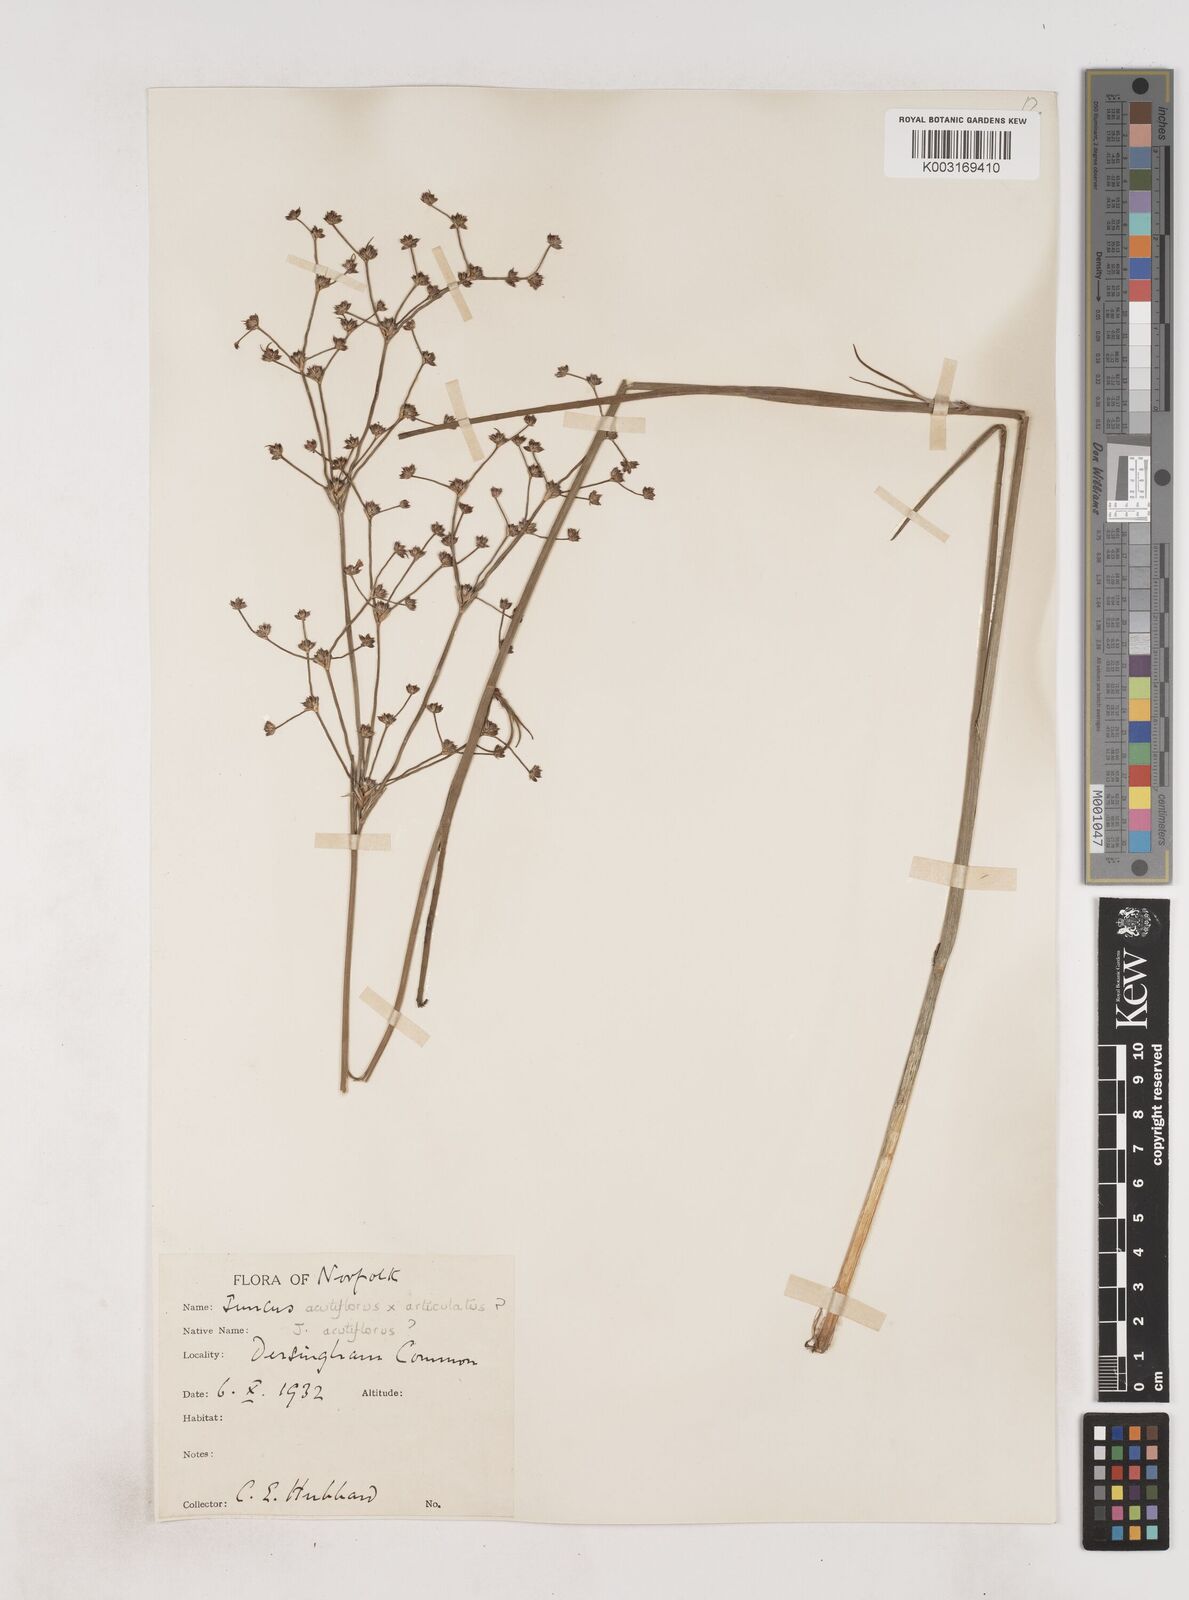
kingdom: Plantae
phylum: Tracheophyta
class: Liliopsida
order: Poales
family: Juncaceae
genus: Juncus
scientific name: Juncus
